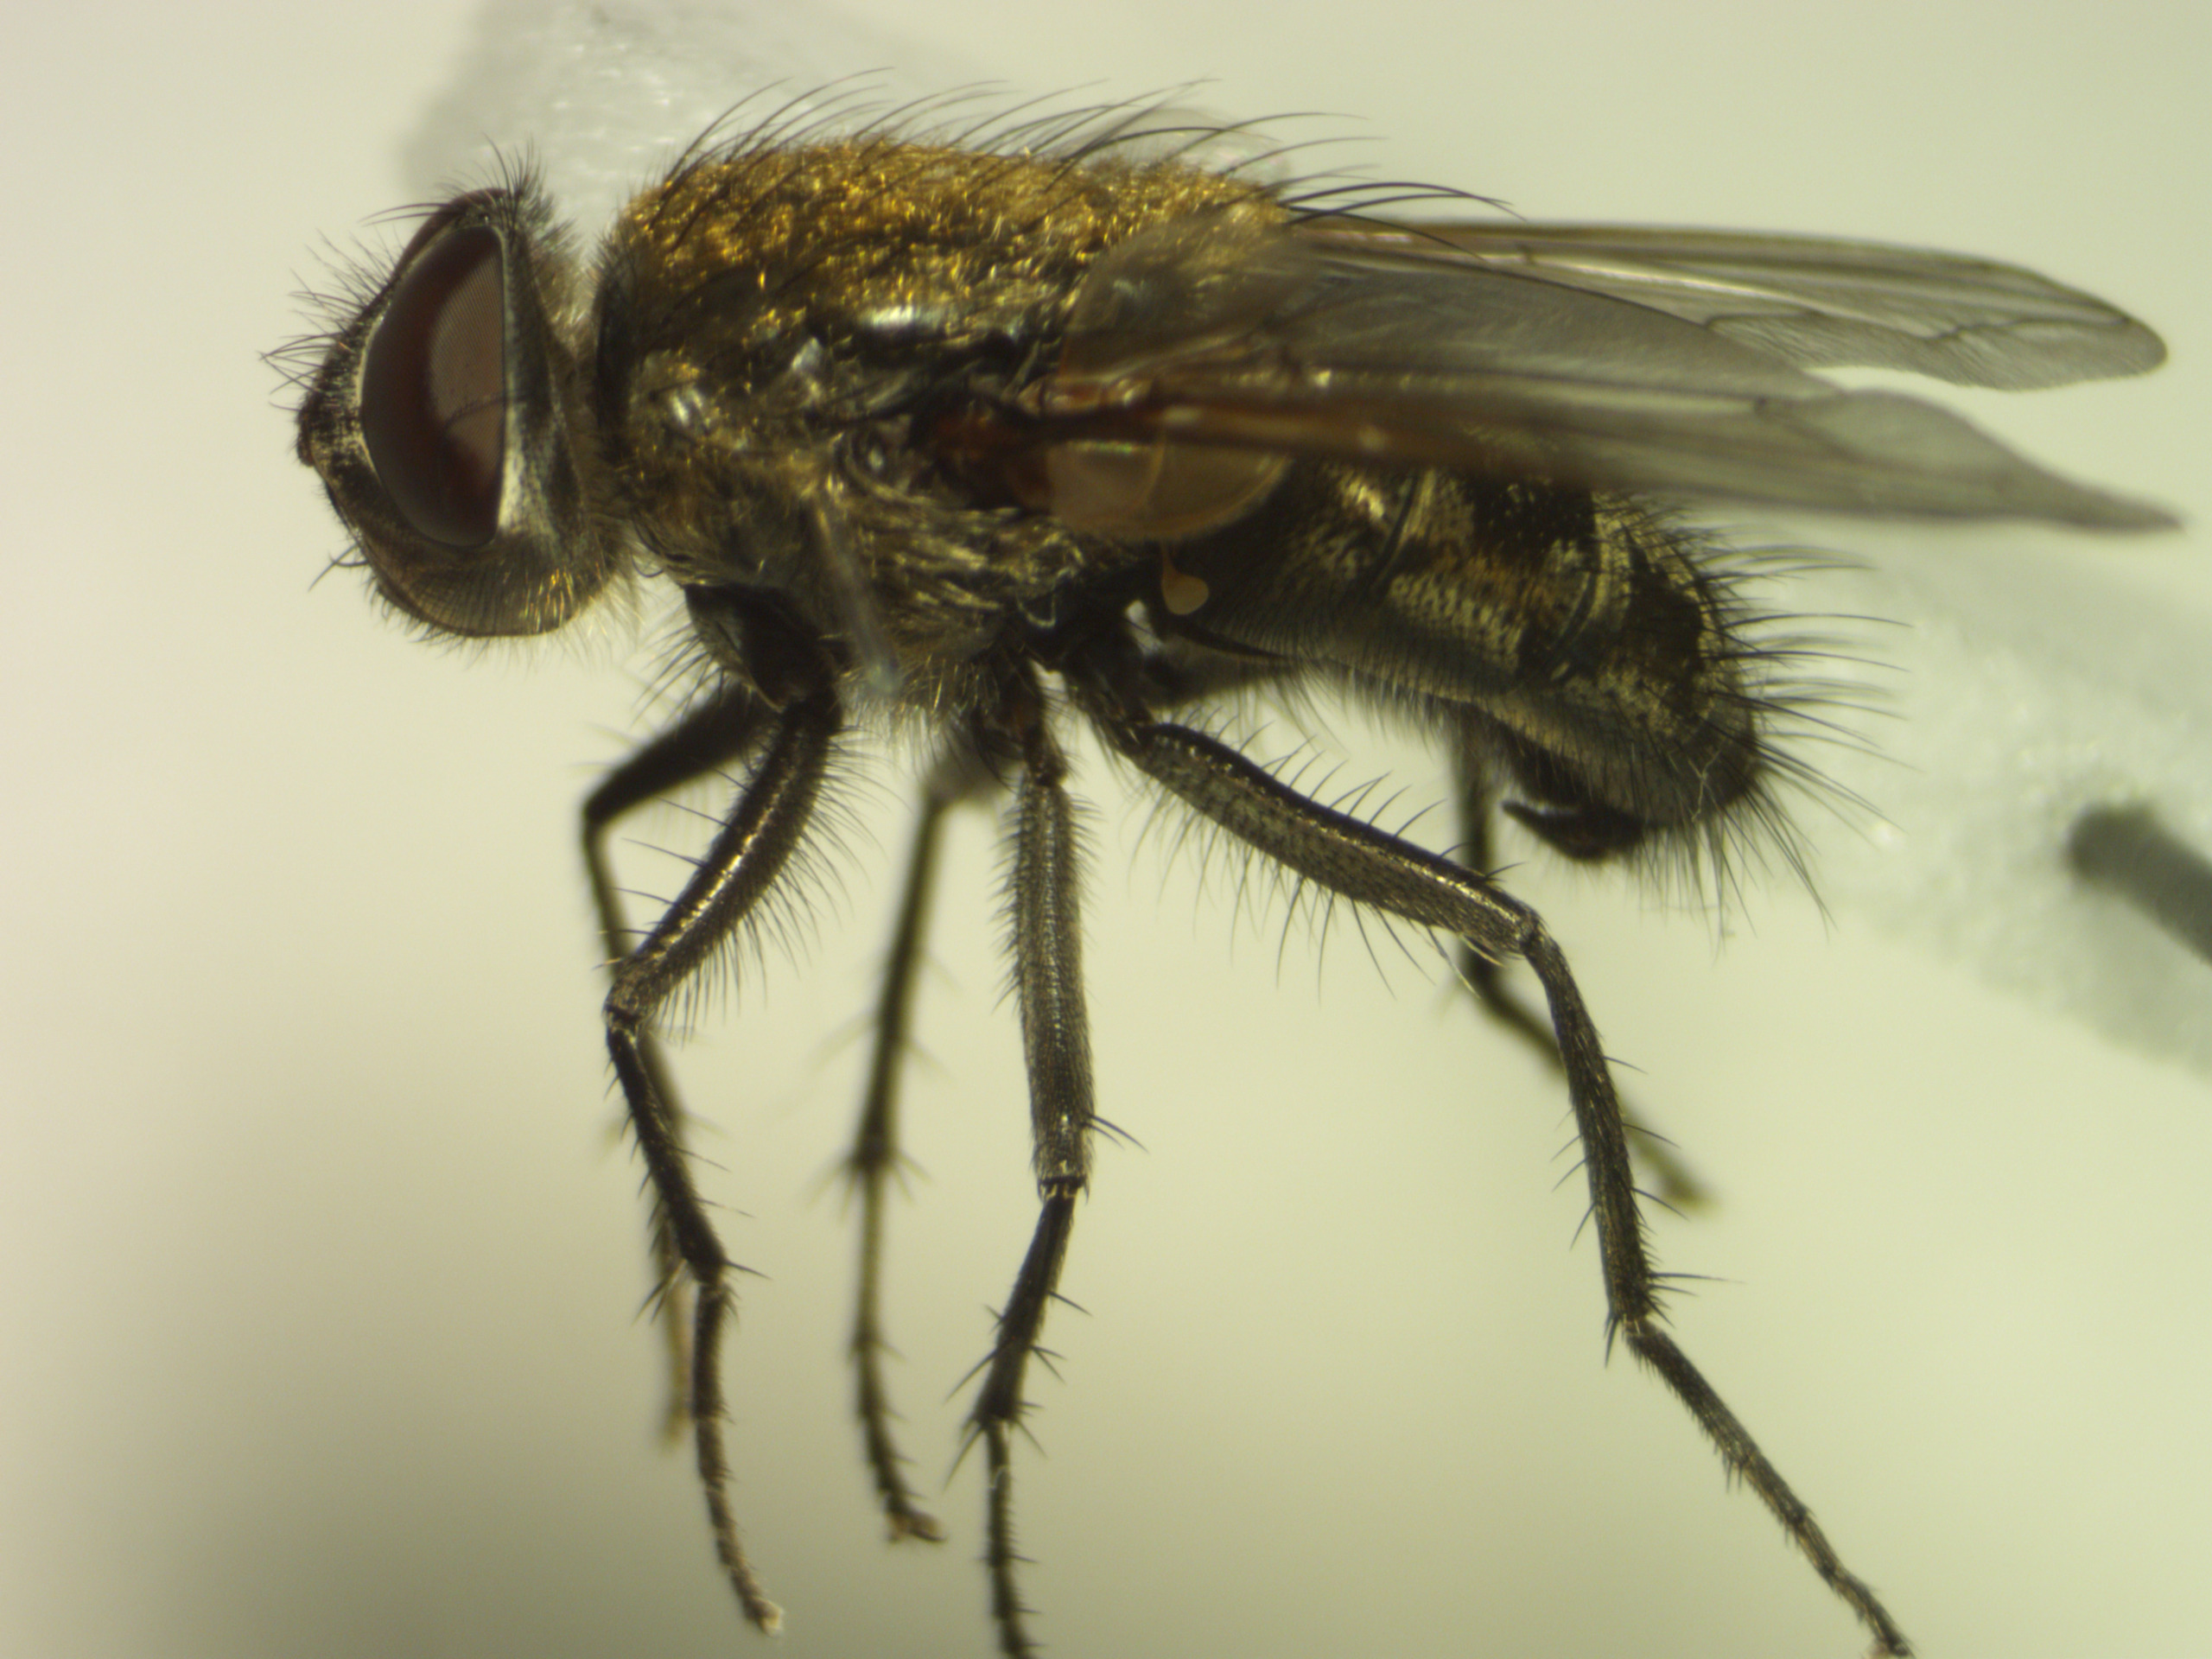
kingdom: Animalia
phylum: Arthropoda
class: Insecta
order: Diptera
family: Polleniidae
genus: Pollenia
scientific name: Pollenia pediculata
